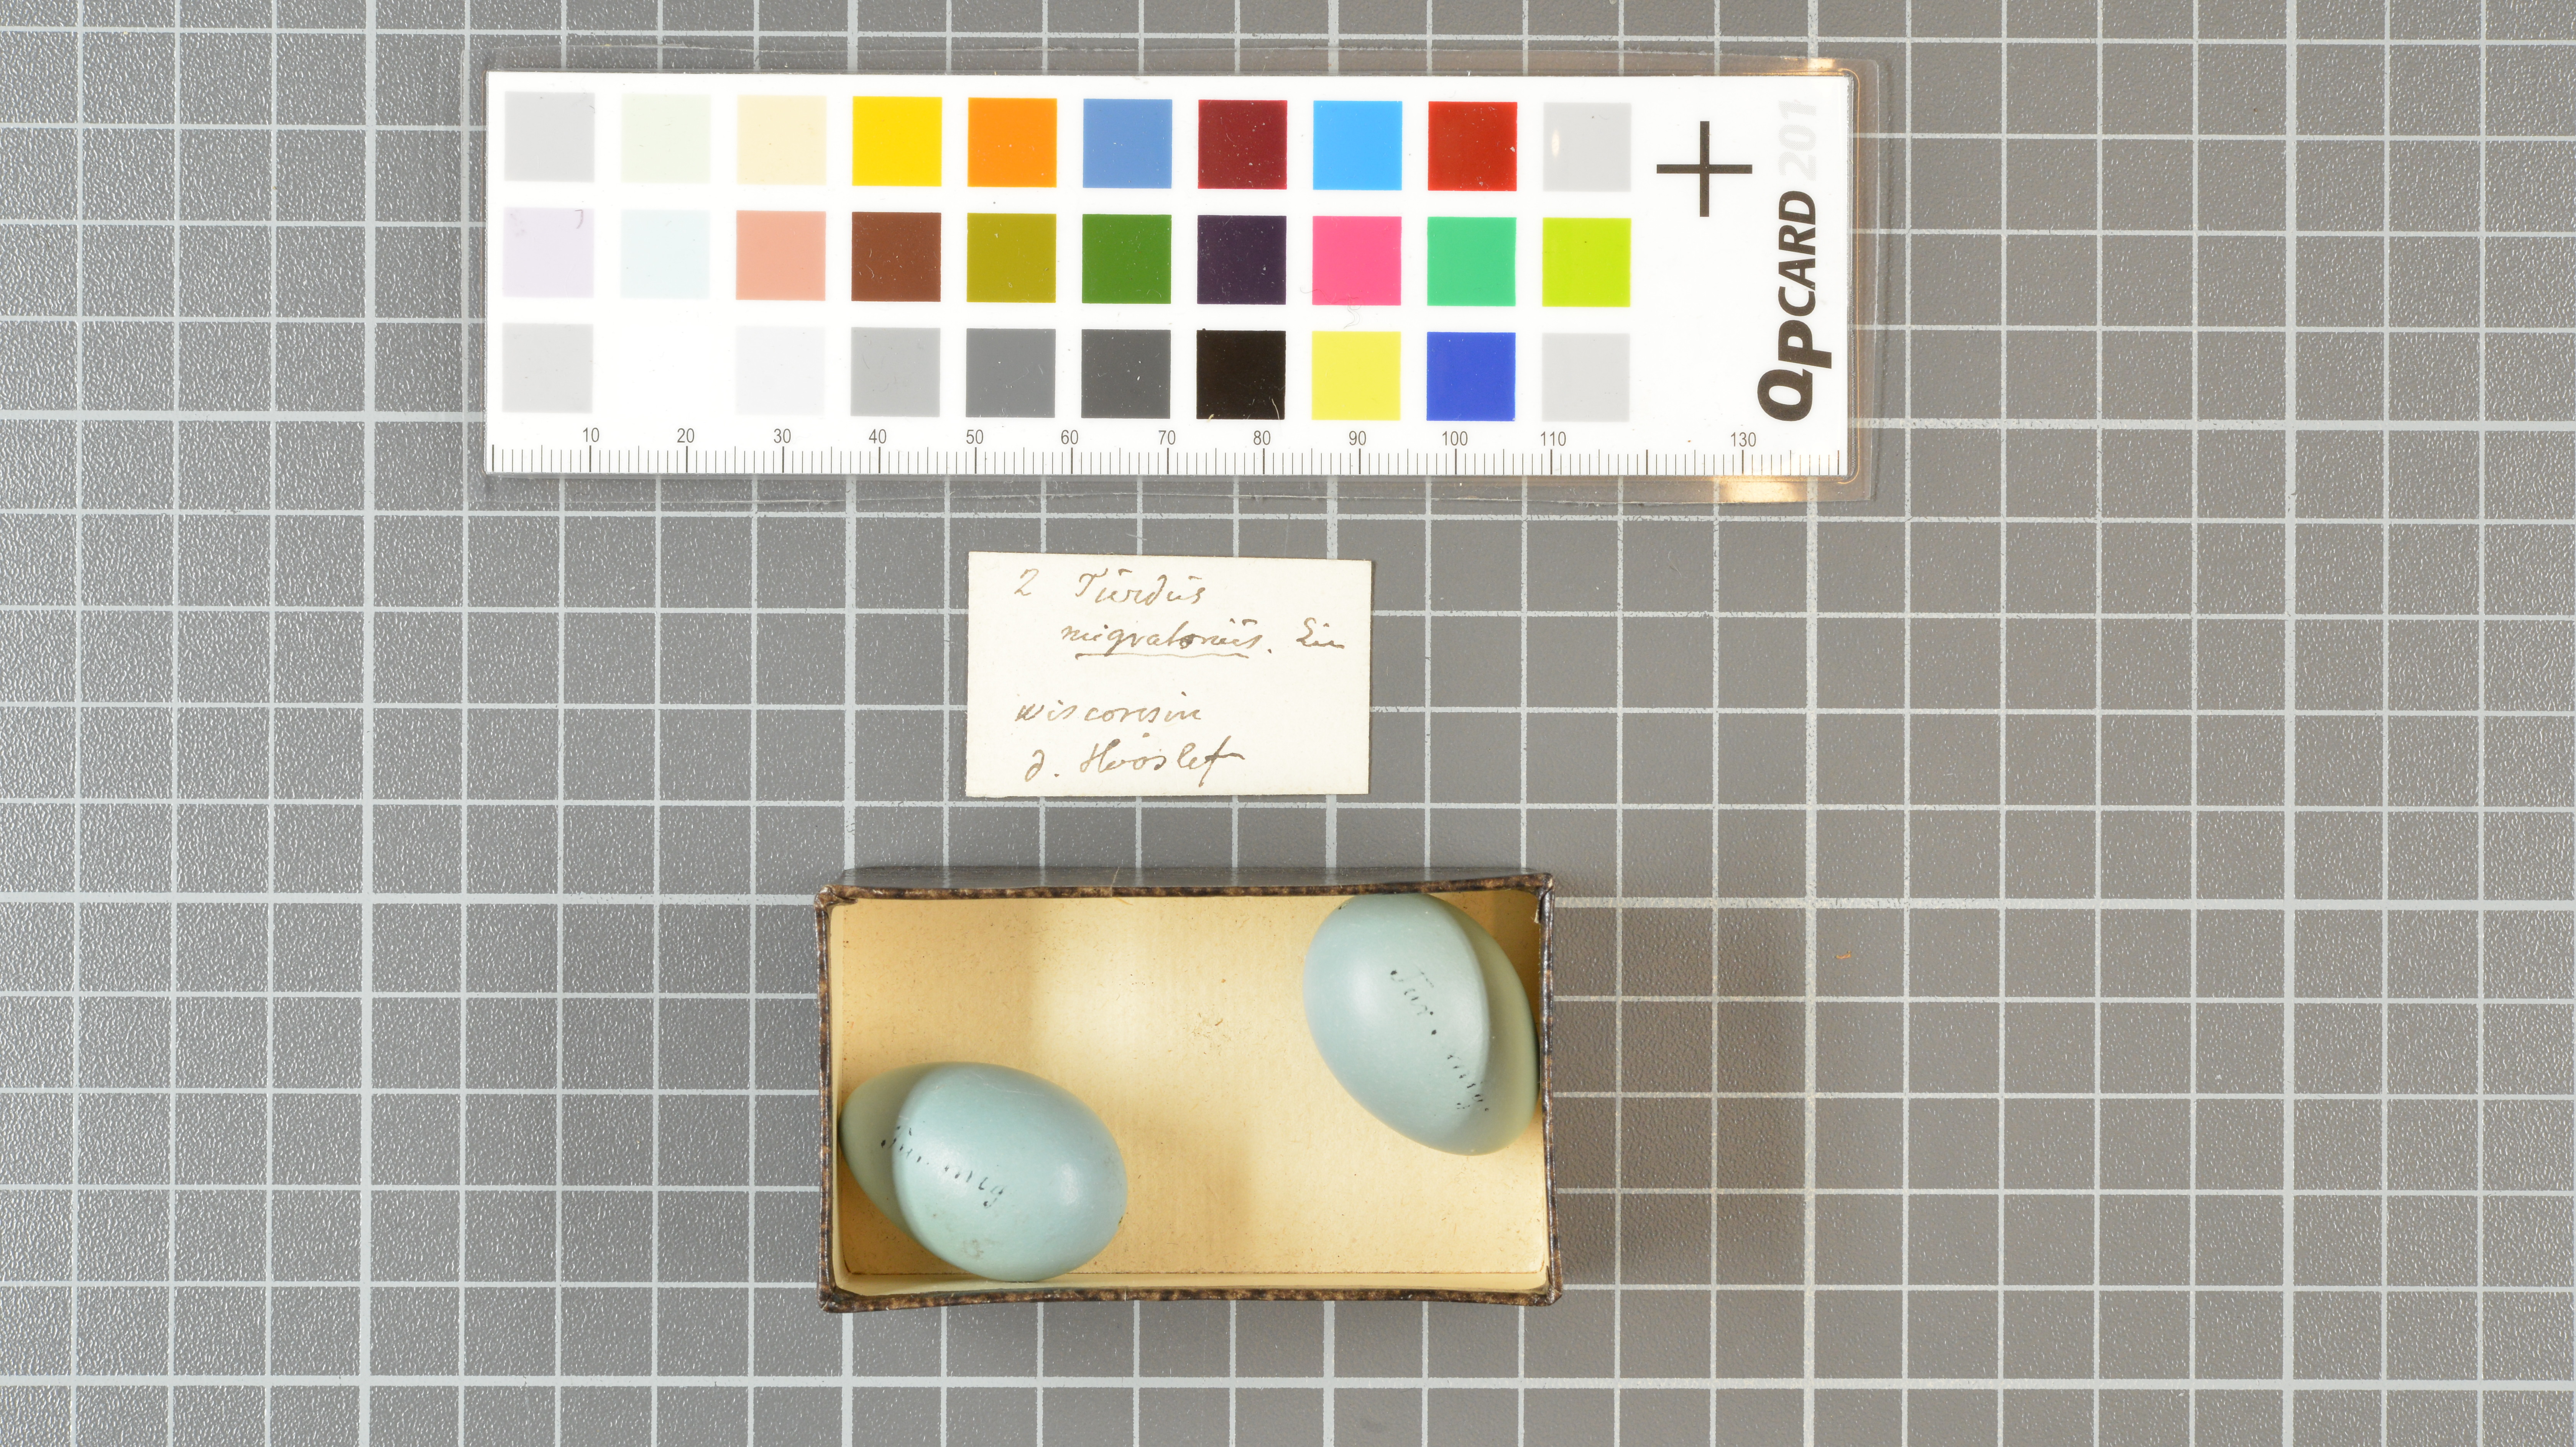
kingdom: Animalia
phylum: Chordata
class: Aves
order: Passeriformes
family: Turdidae
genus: Turdus
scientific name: Turdus migratorius
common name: American robin
